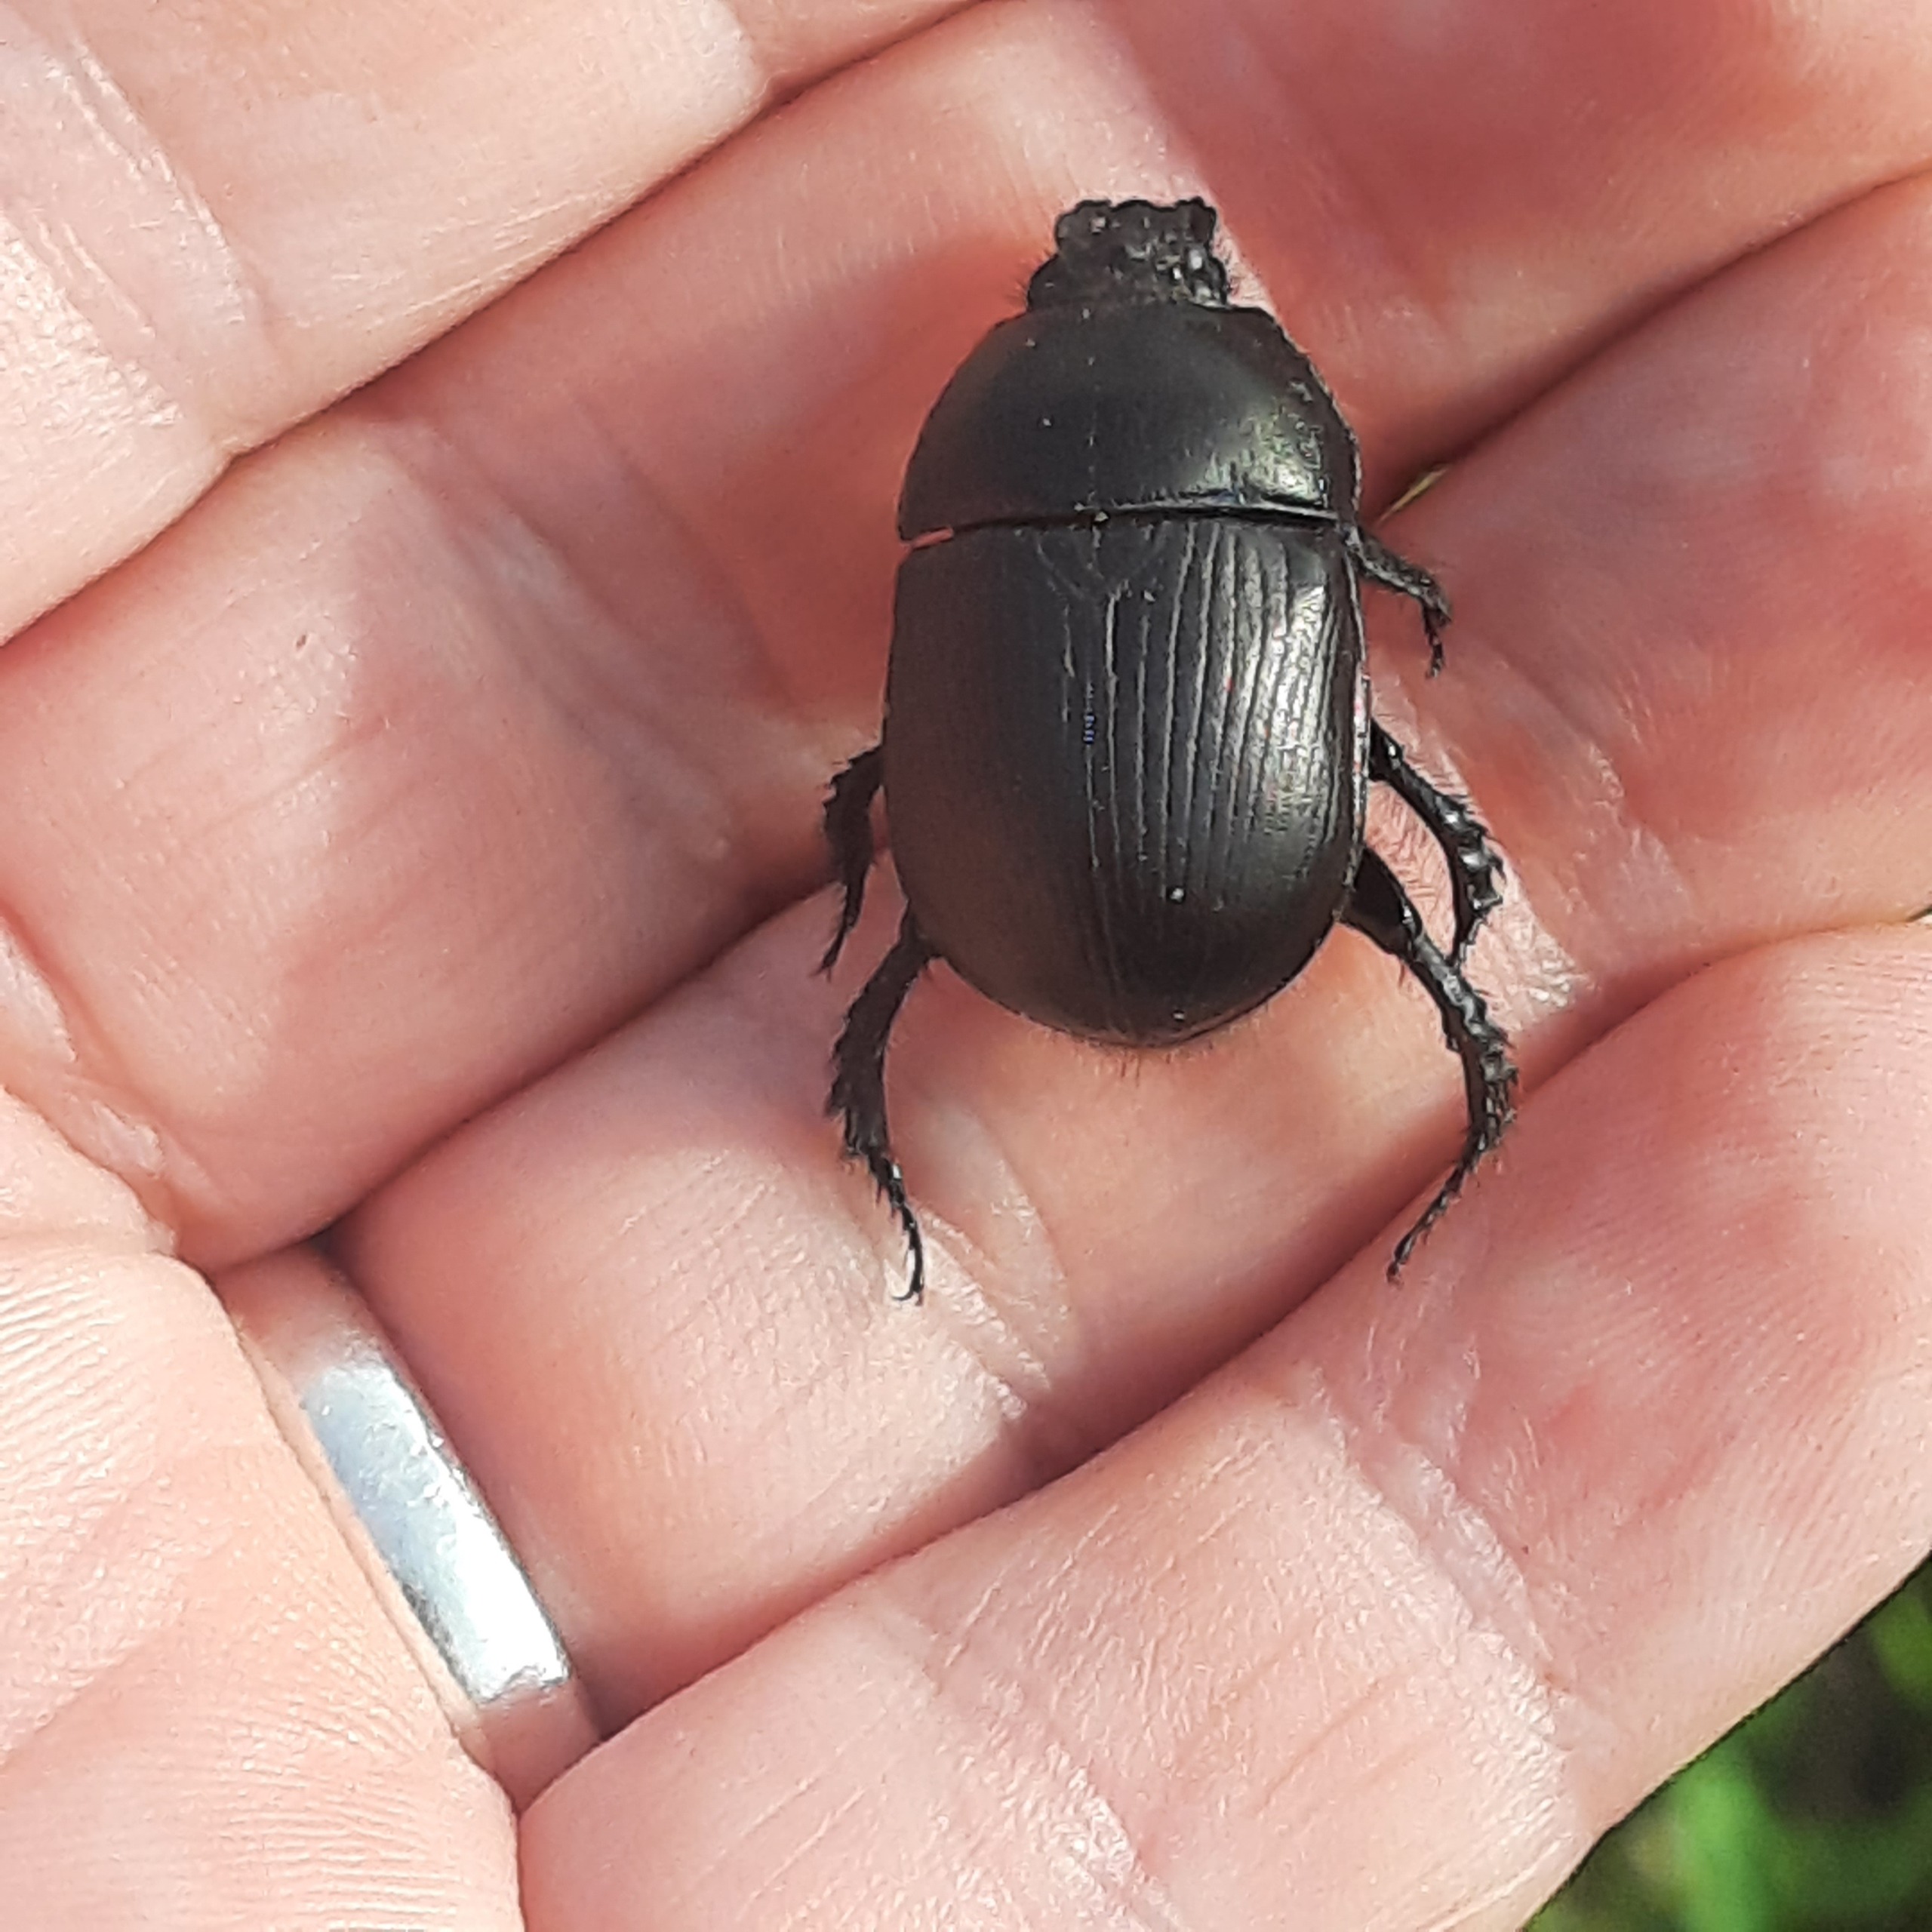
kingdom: Animalia
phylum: Arthropoda
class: Insecta
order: Coleoptera
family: Geotrupidae
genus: Geotrupes
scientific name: Geotrupes spiniger
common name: Markskarnbasse
